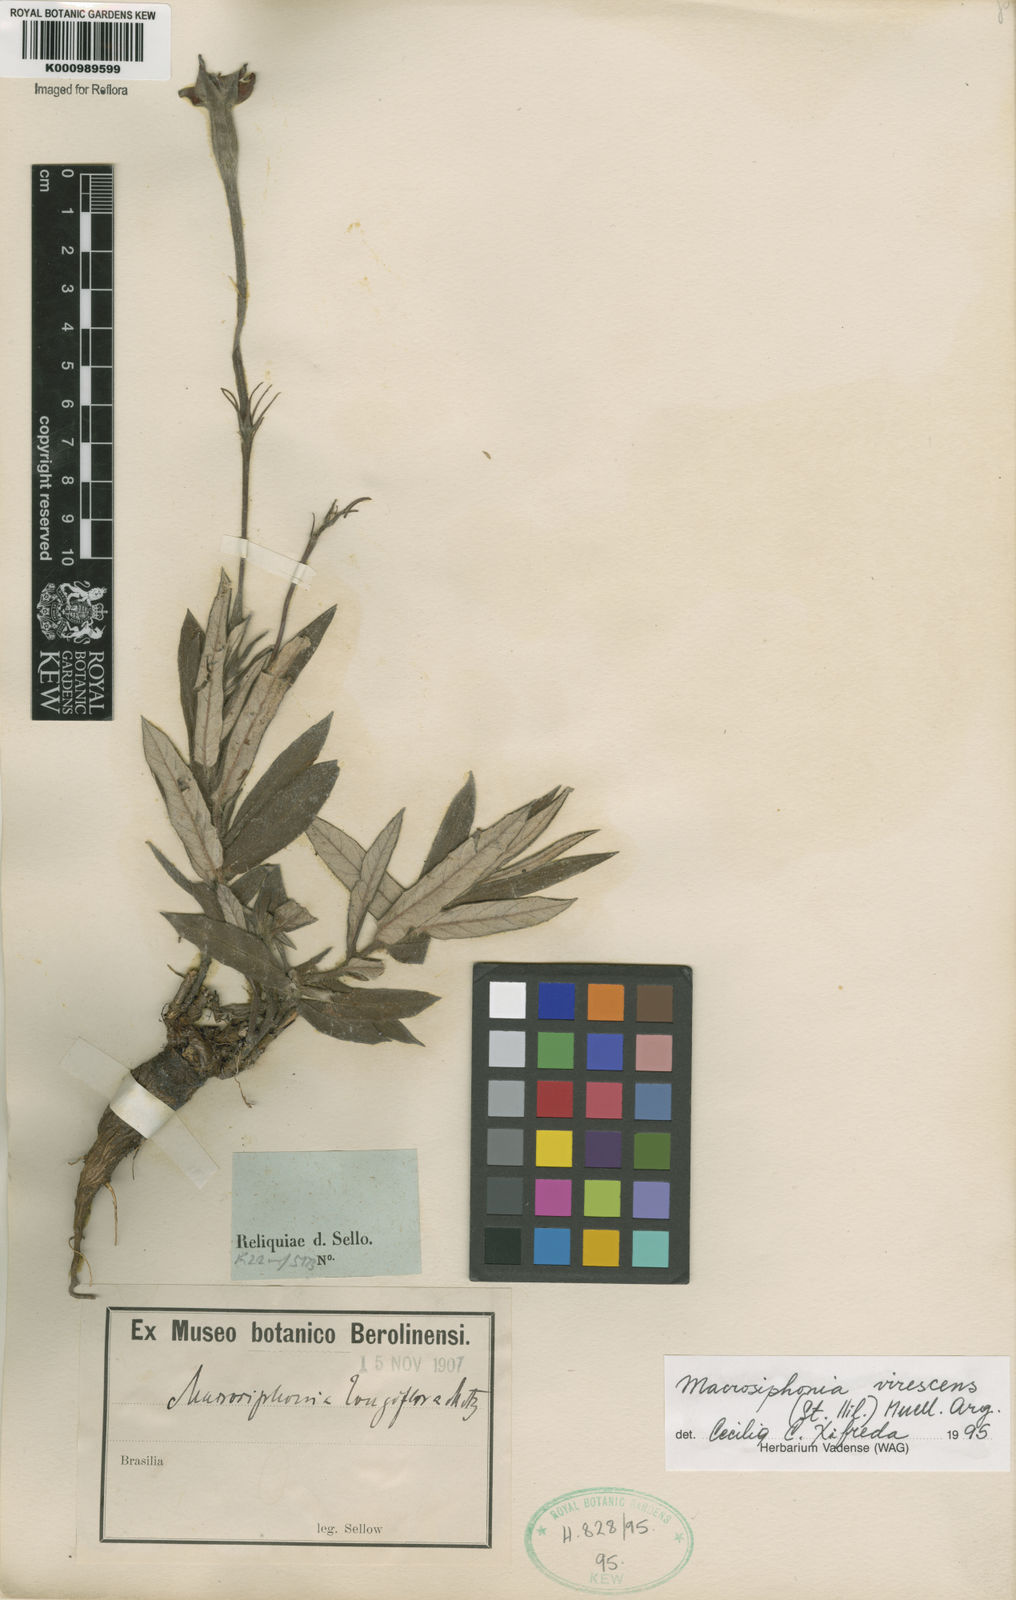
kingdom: Plantae
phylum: Tracheophyta
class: Magnoliopsida
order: Gentianales
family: Apocynaceae
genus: Mandevilla
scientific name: Mandevilla virescens
